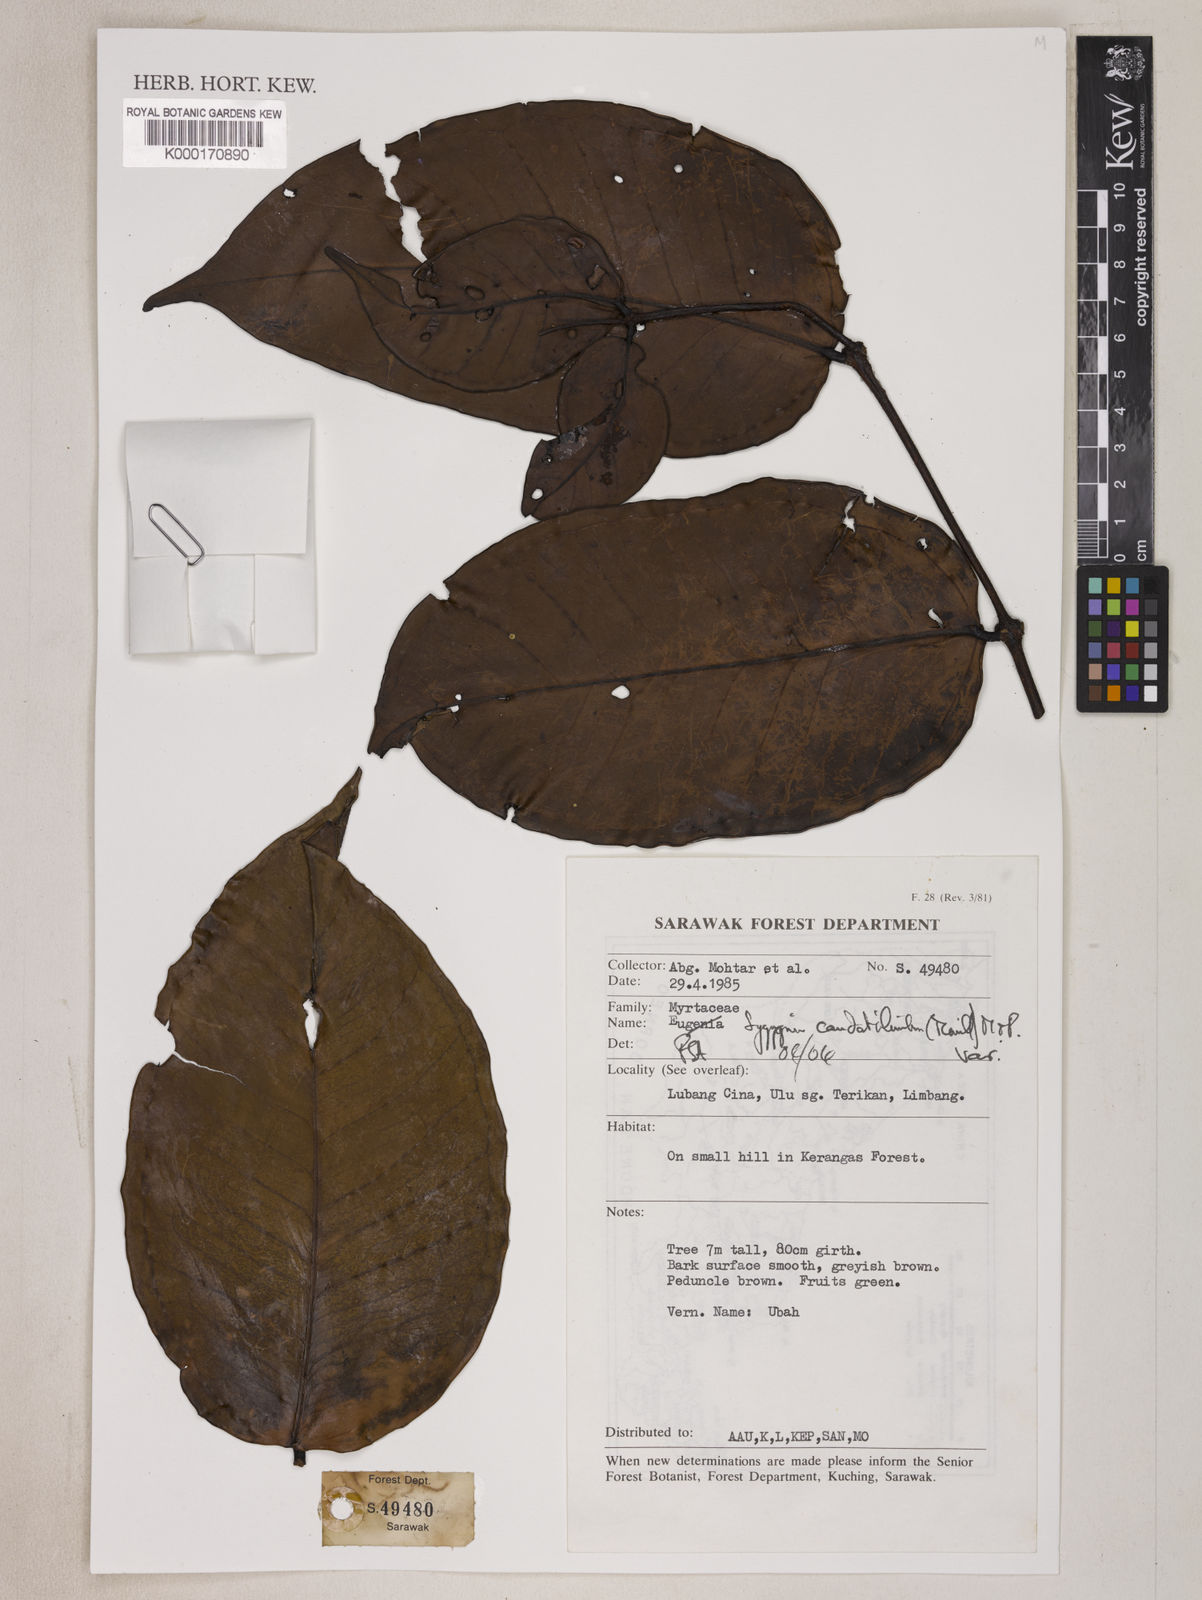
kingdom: Plantae
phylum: Tracheophyta
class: Magnoliopsida
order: Myrtales
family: Myrtaceae
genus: Syzygium
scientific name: Syzygium caudatilimbum
